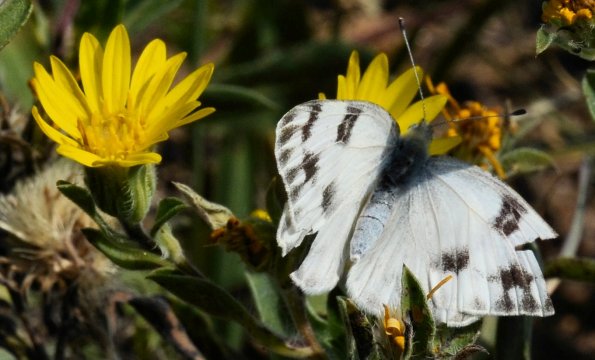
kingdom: Animalia
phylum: Arthropoda
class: Insecta
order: Lepidoptera
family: Pieridae
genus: Pontia
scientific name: Pontia protodice
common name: Checkered White
